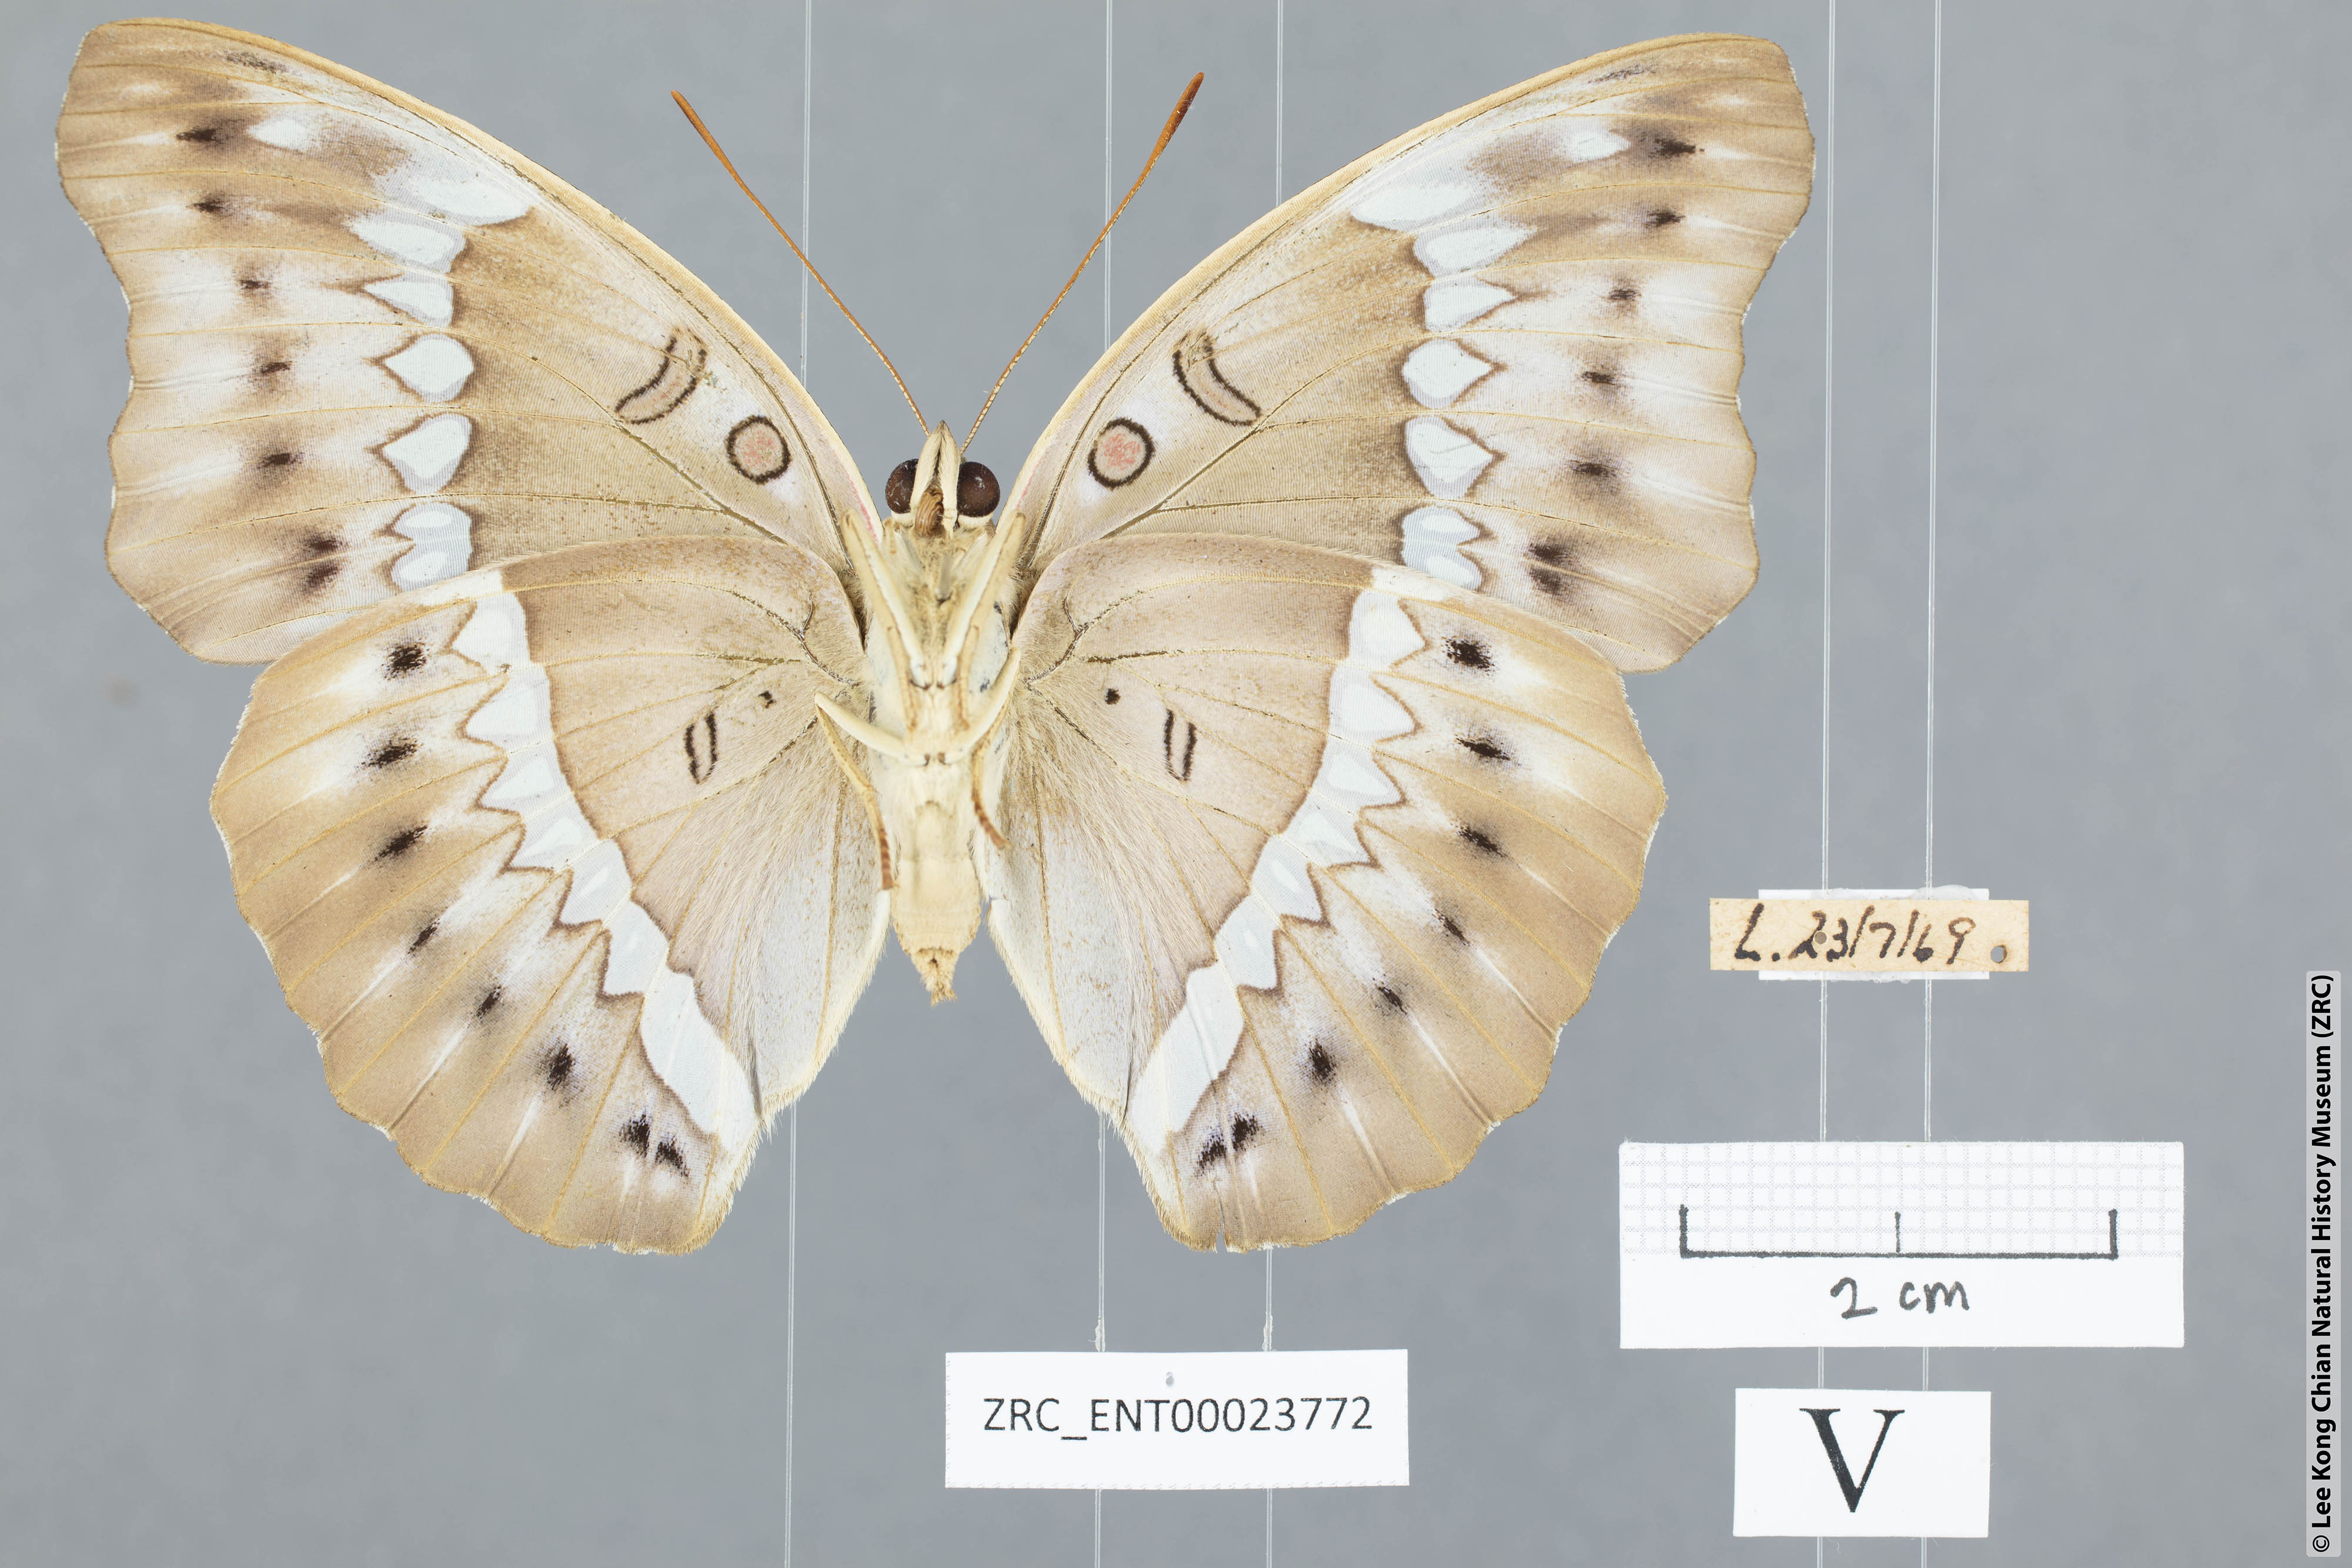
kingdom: Animalia
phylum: Arthropoda
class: Insecta
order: Lepidoptera
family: Nymphalidae
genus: Euthalia
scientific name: Euthalia Bassarona teuta
